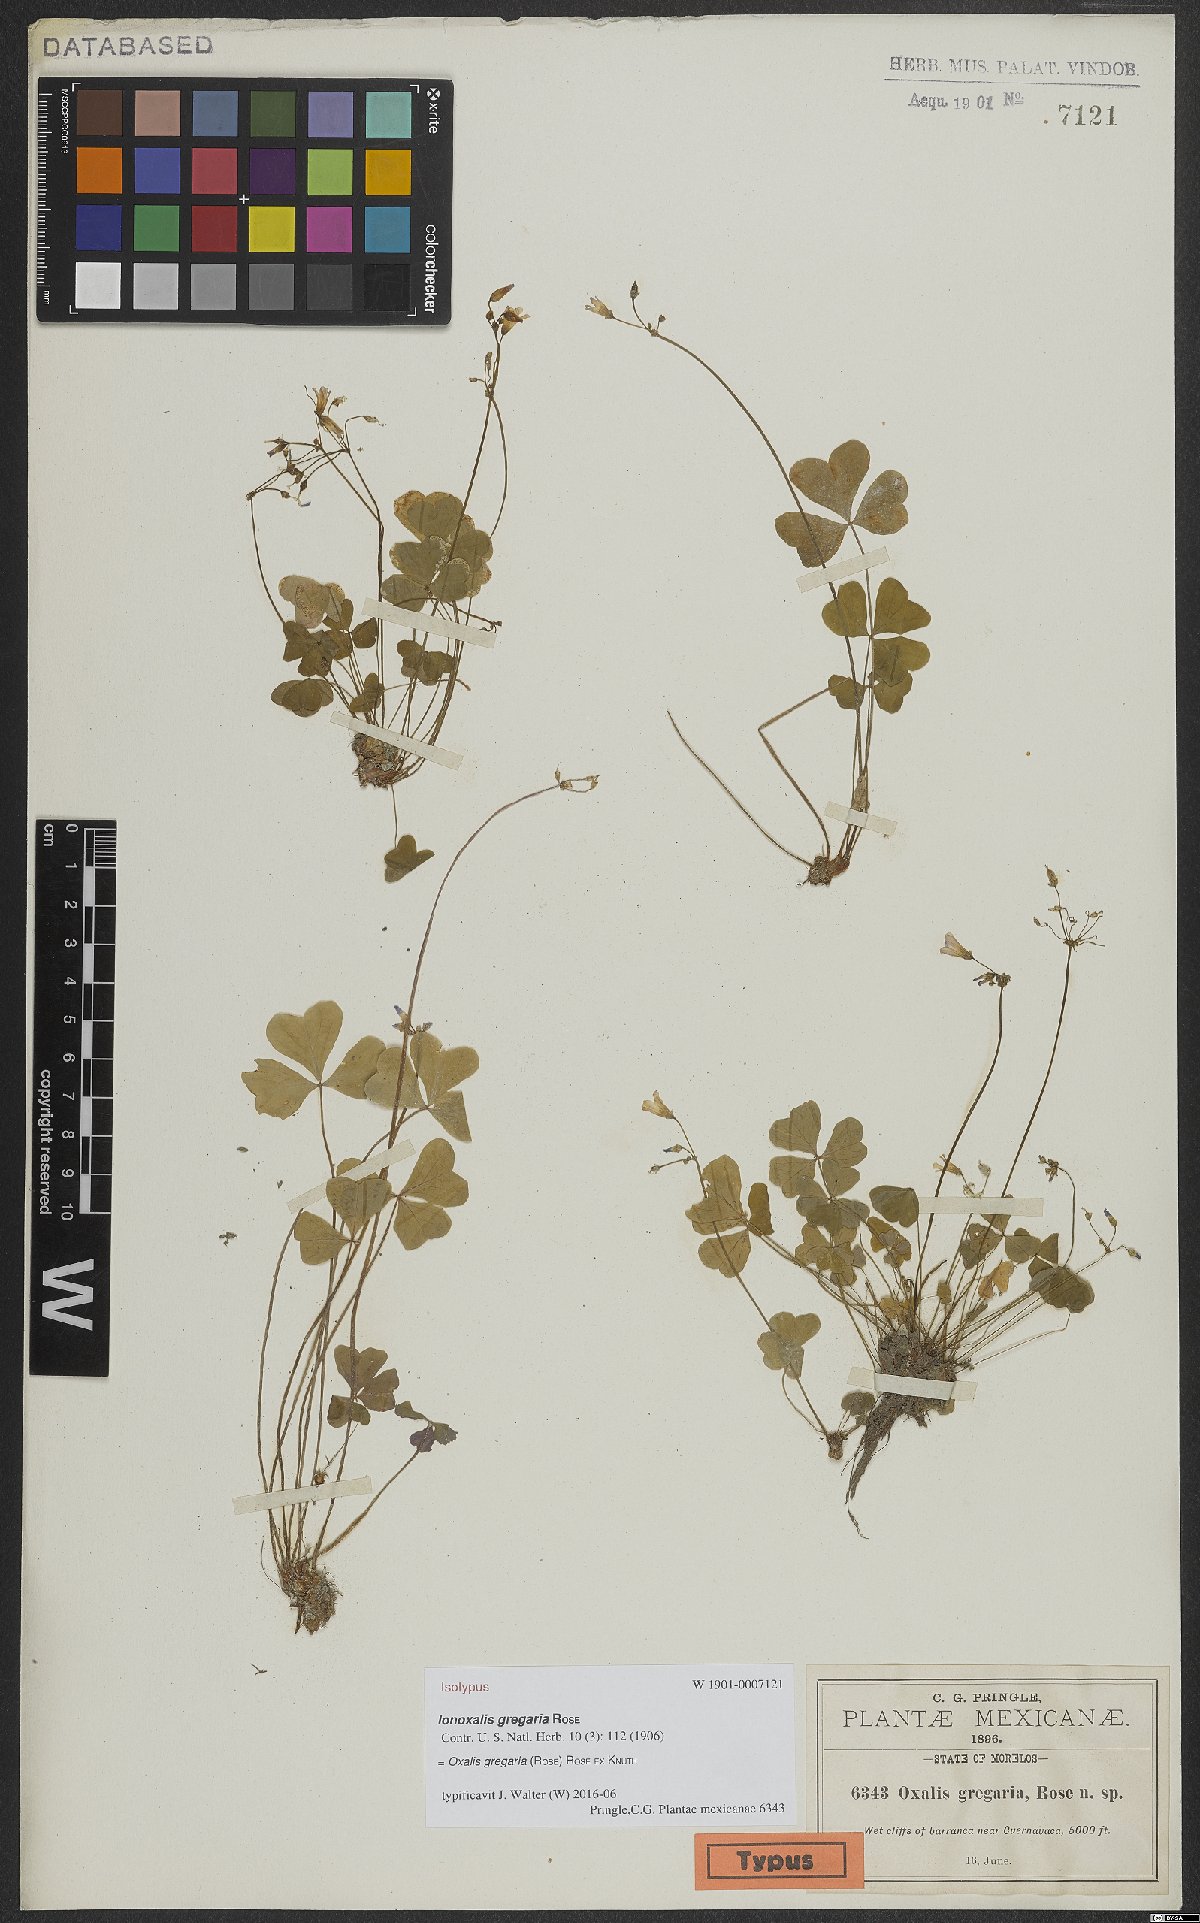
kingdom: Plantae
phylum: Tracheophyta
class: Magnoliopsida
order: Oxalidales
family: Oxalidaceae
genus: Oxalis
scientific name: Oxalis dimidiata
